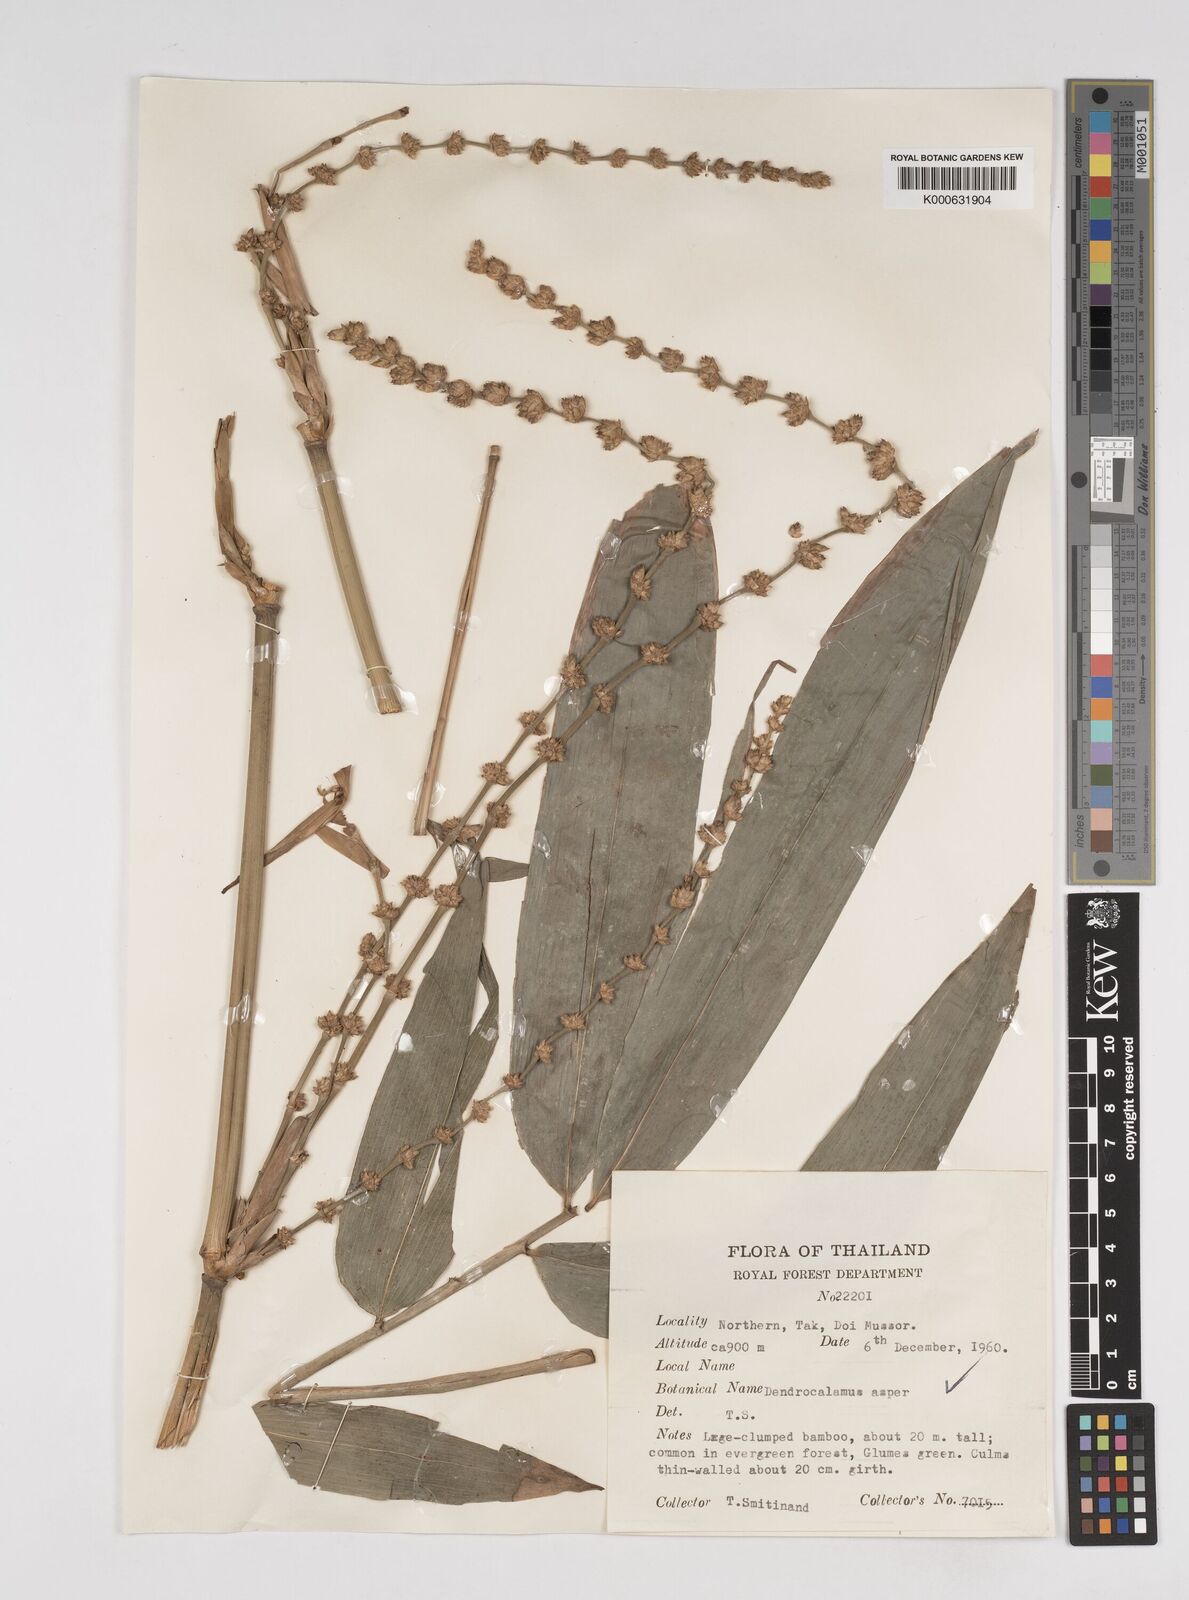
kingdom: Plantae
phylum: Tracheophyta
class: Liliopsida
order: Poales
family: Poaceae
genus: Dendrocalamus
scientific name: Dendrocalamus brandisii
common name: Velvetleaf bamboo
